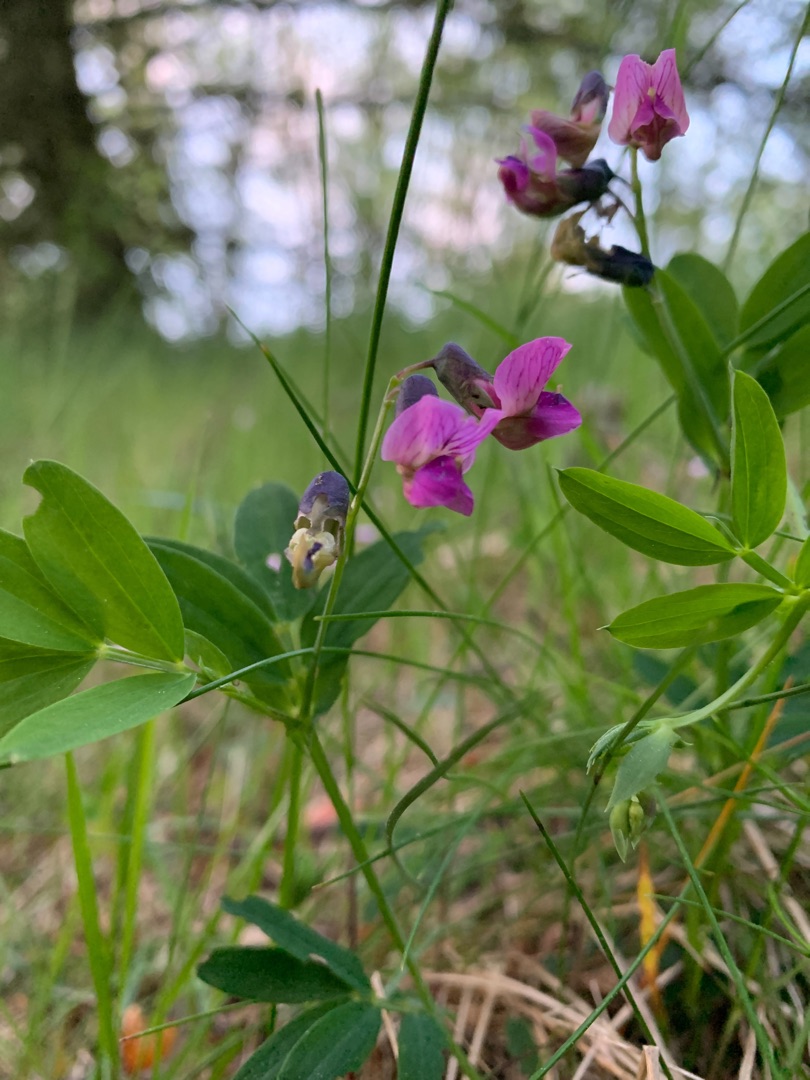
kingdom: Plantae
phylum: Tracheophyta
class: Magnoliopsida
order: Fabales
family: Fabaceae
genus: Lathyrus
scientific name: Lathyrus linifolius
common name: Krat-fladbælg
